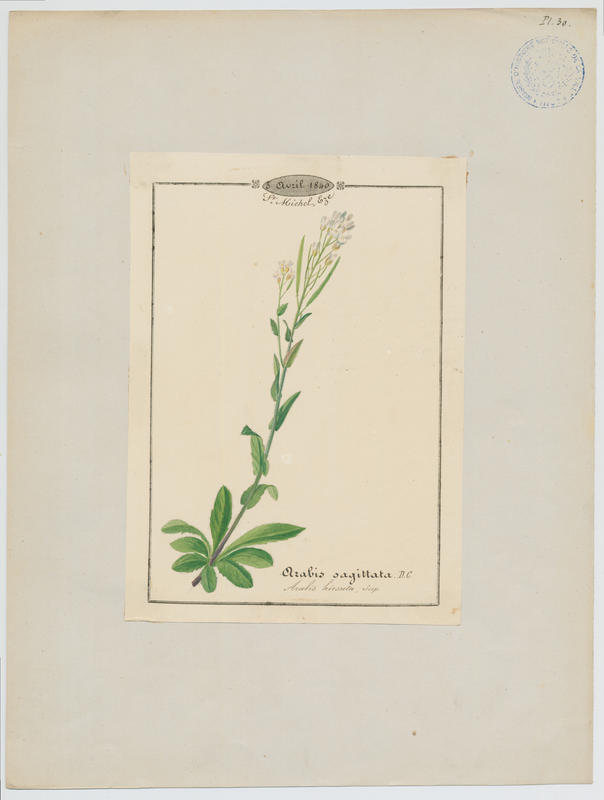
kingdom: Plantae
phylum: Tracheophyta
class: Magnoliopsida
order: Brassicales
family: Brassicaceae
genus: Arabis
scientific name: Arabis sagittata
